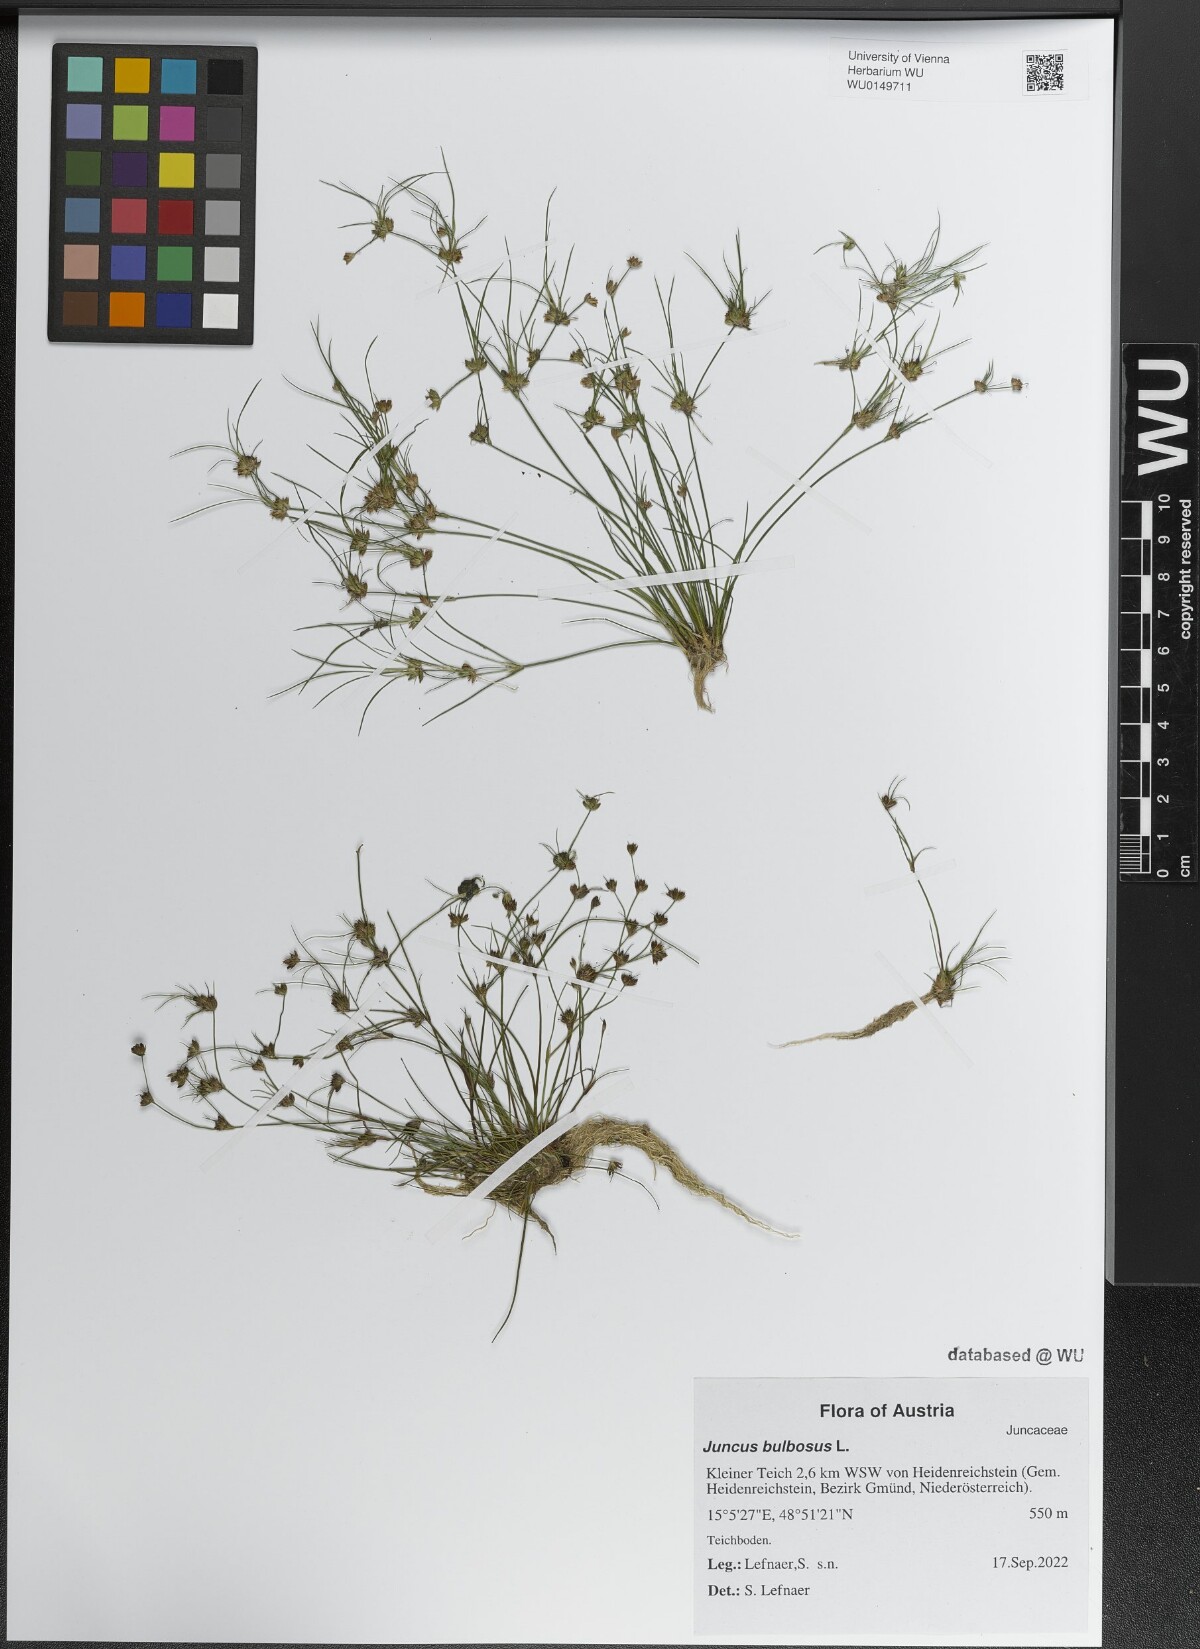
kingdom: Plantae
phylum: Tracheophyta
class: Liliopsida
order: Poales
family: Juncaceae
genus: Juncus
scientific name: Juncus bulbosus
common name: Bulbous rush
